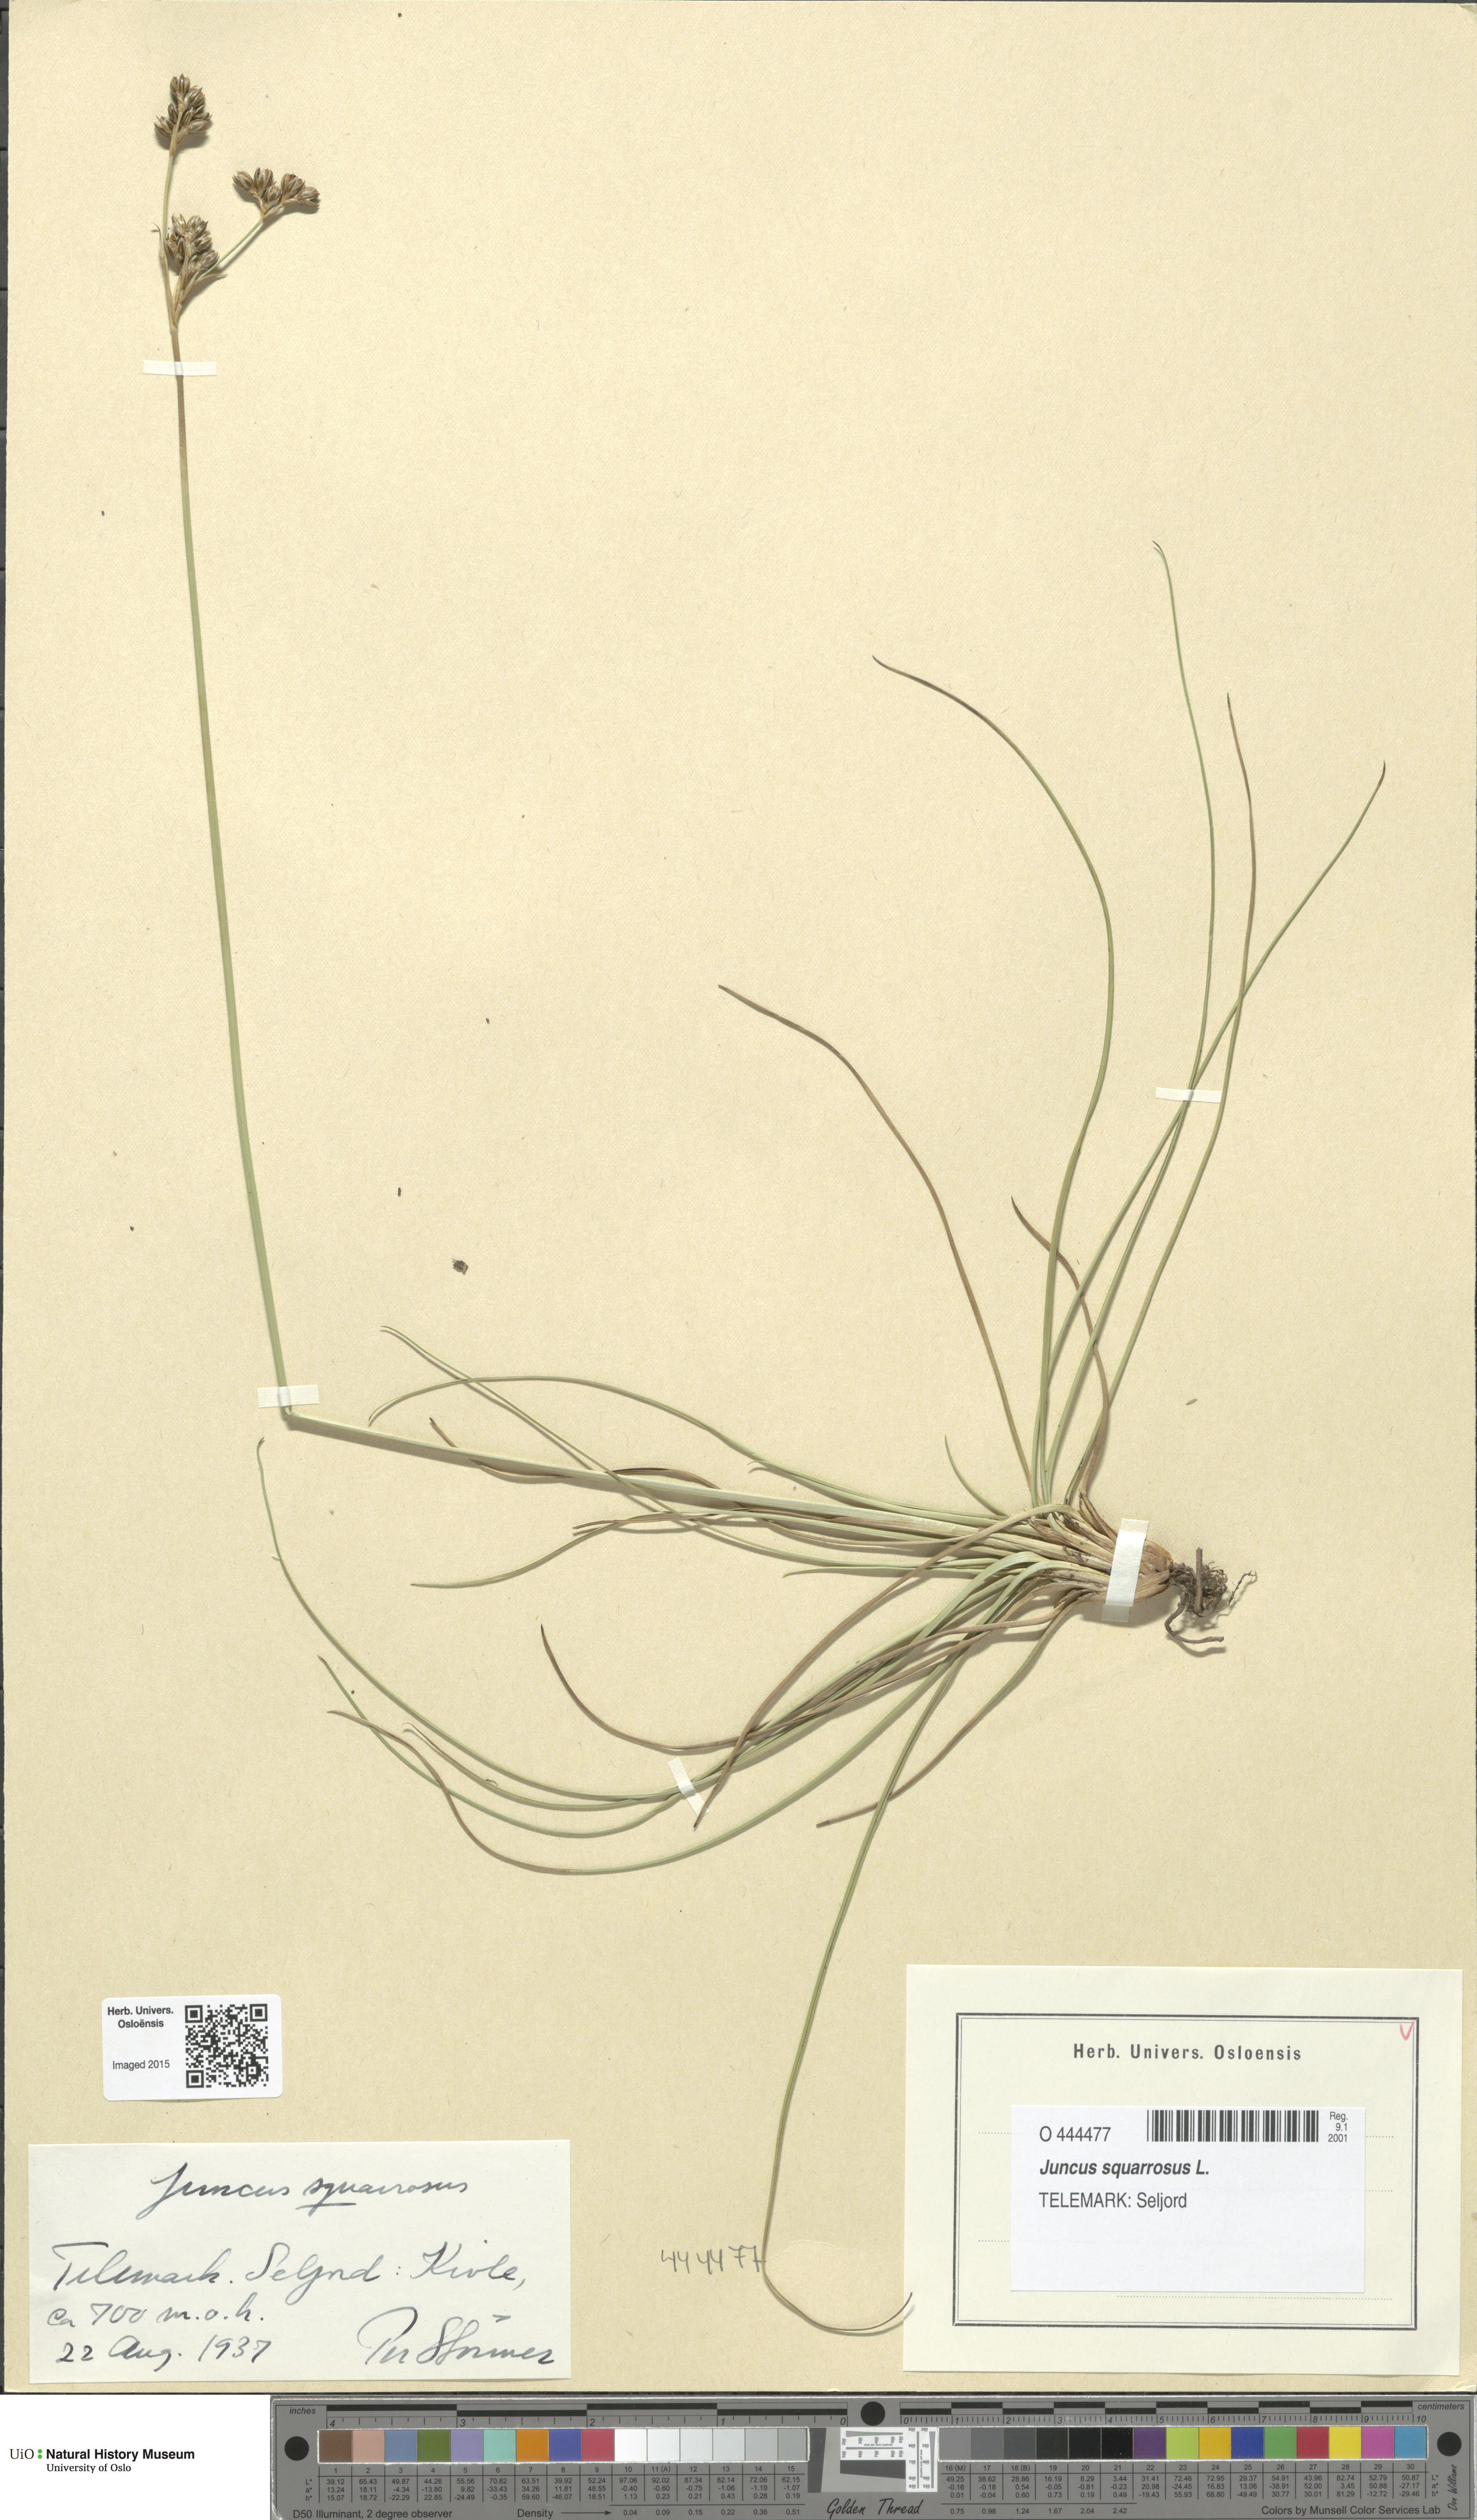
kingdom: Plantae
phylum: Tracheophyta
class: Liliopsida
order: Poales
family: Juncaceae
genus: Juncus
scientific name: Juncus squarrosus
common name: Heath rush
